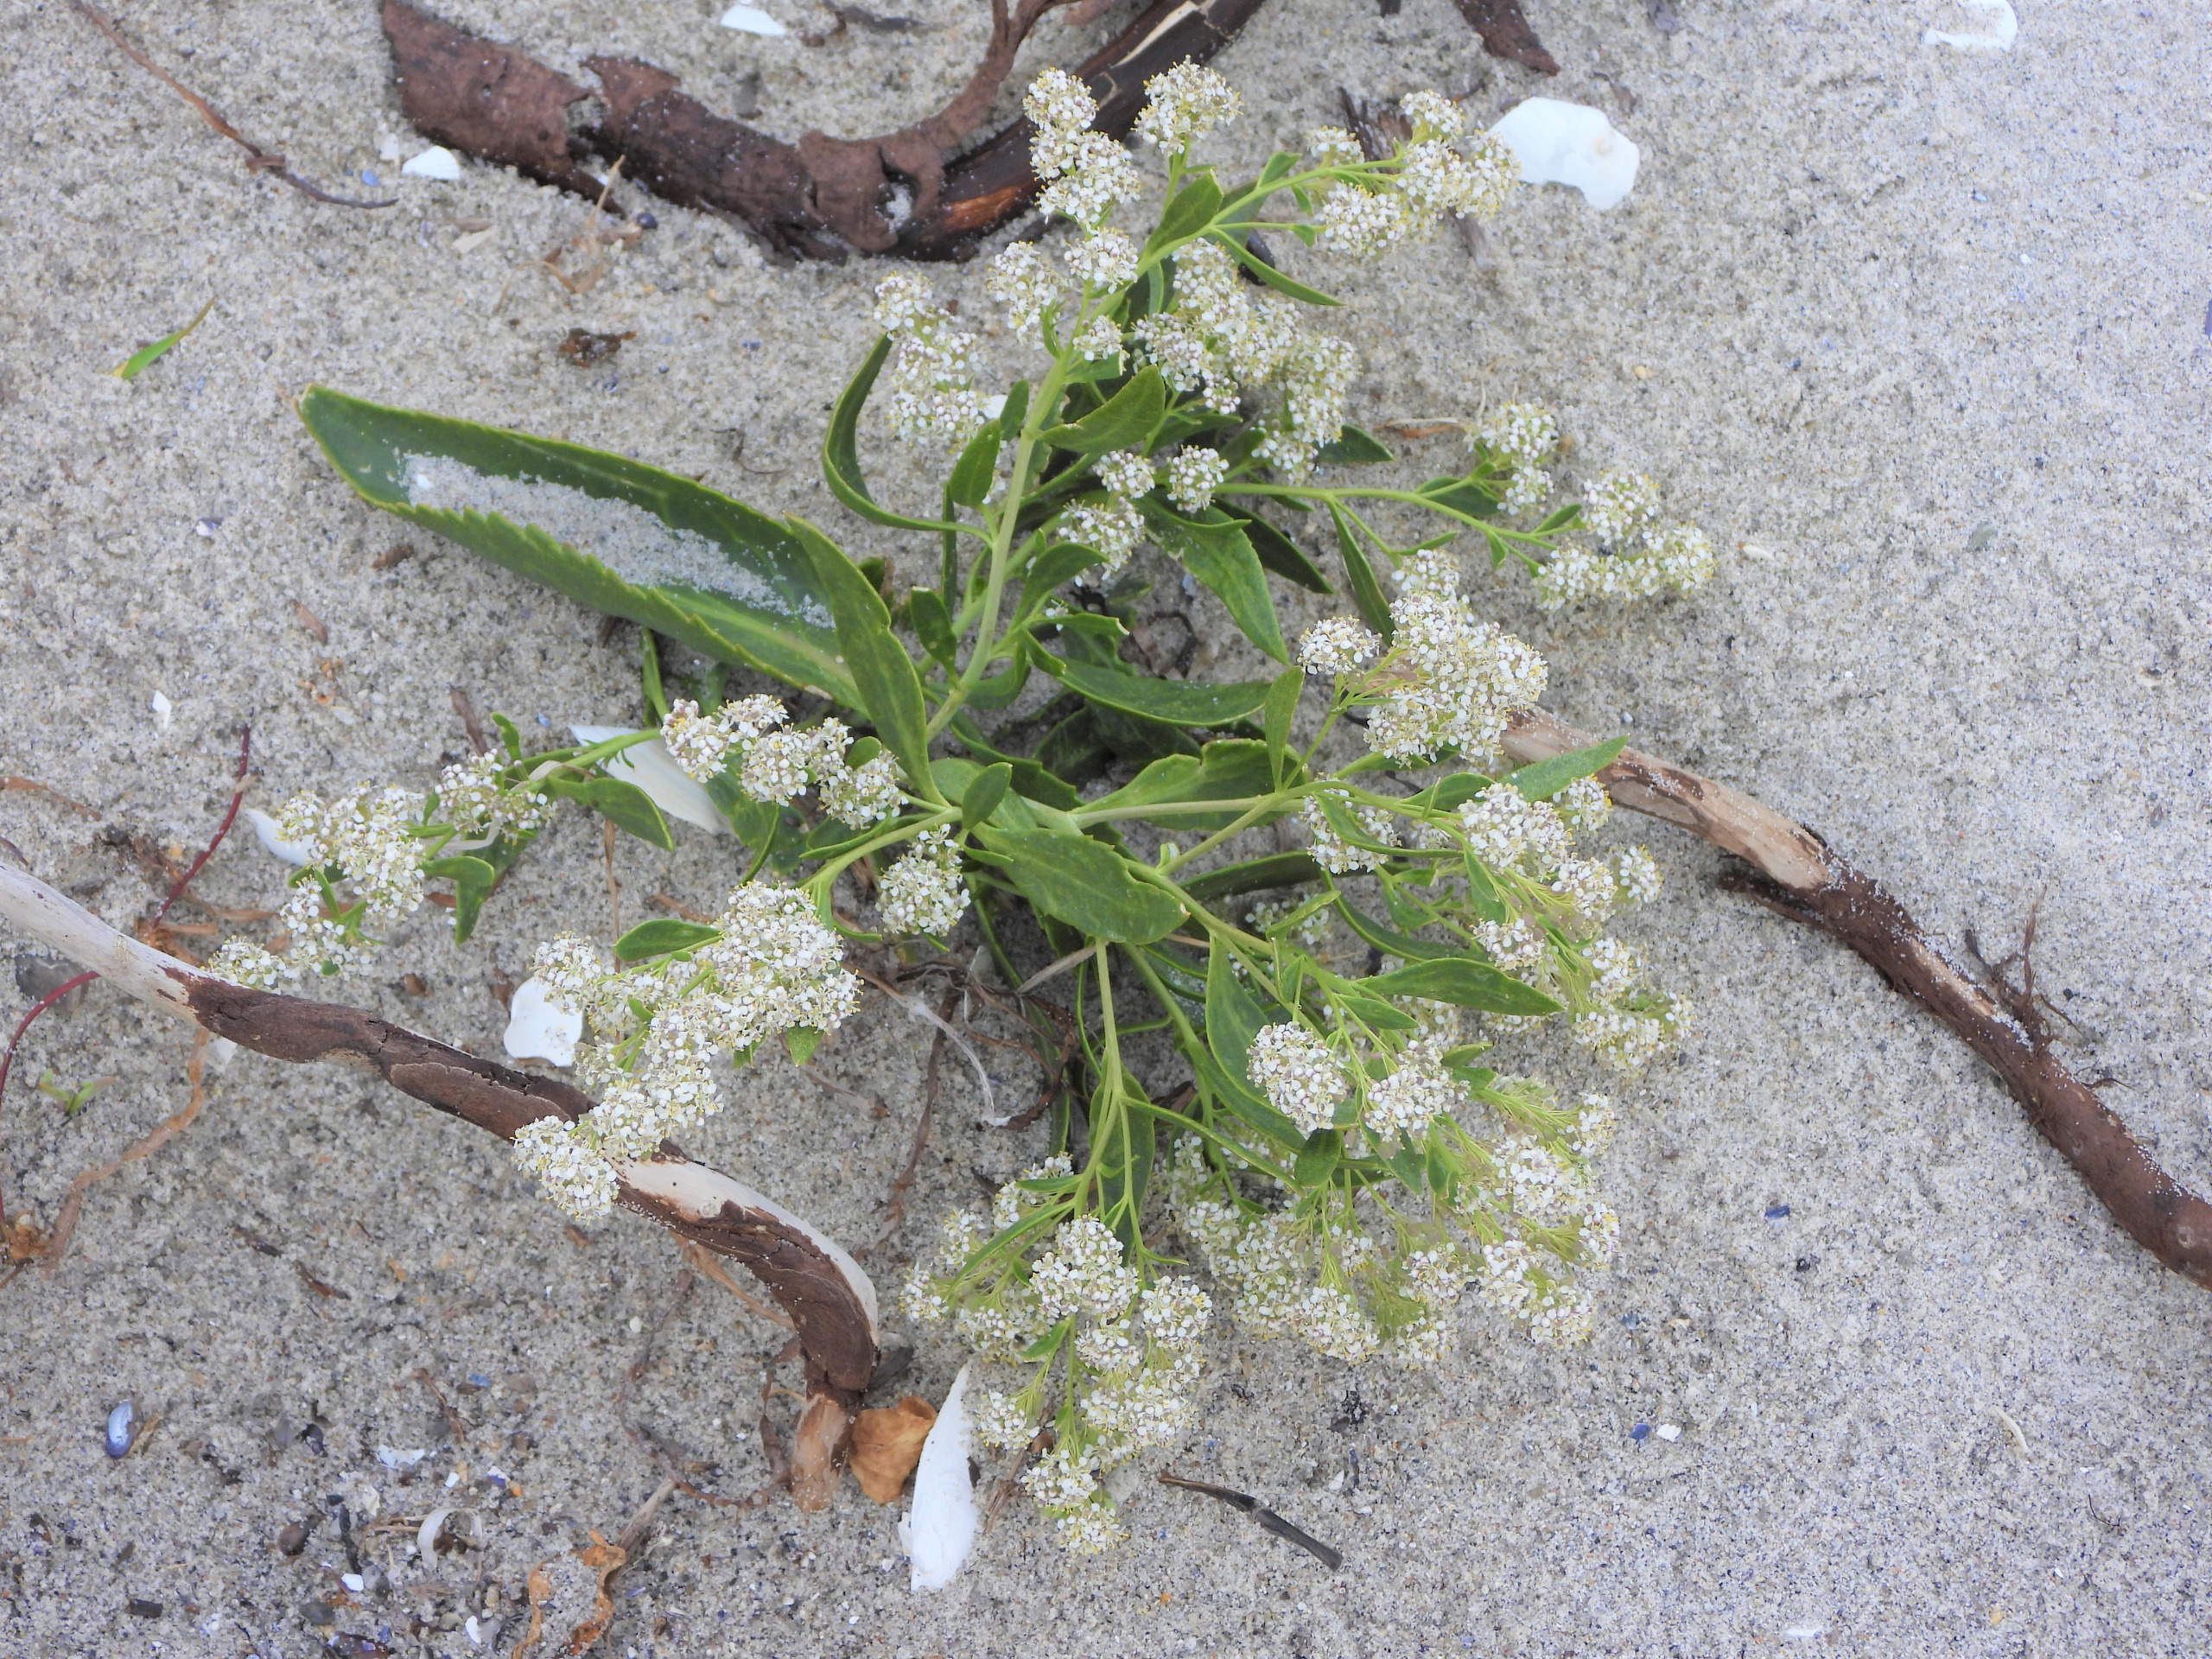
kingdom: Plantae
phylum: Tracheophyta
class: Magnoliopsida
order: Brassicales
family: Brassicaceae
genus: Lepidium
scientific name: Lepidium latifolium
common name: Strand-karse
